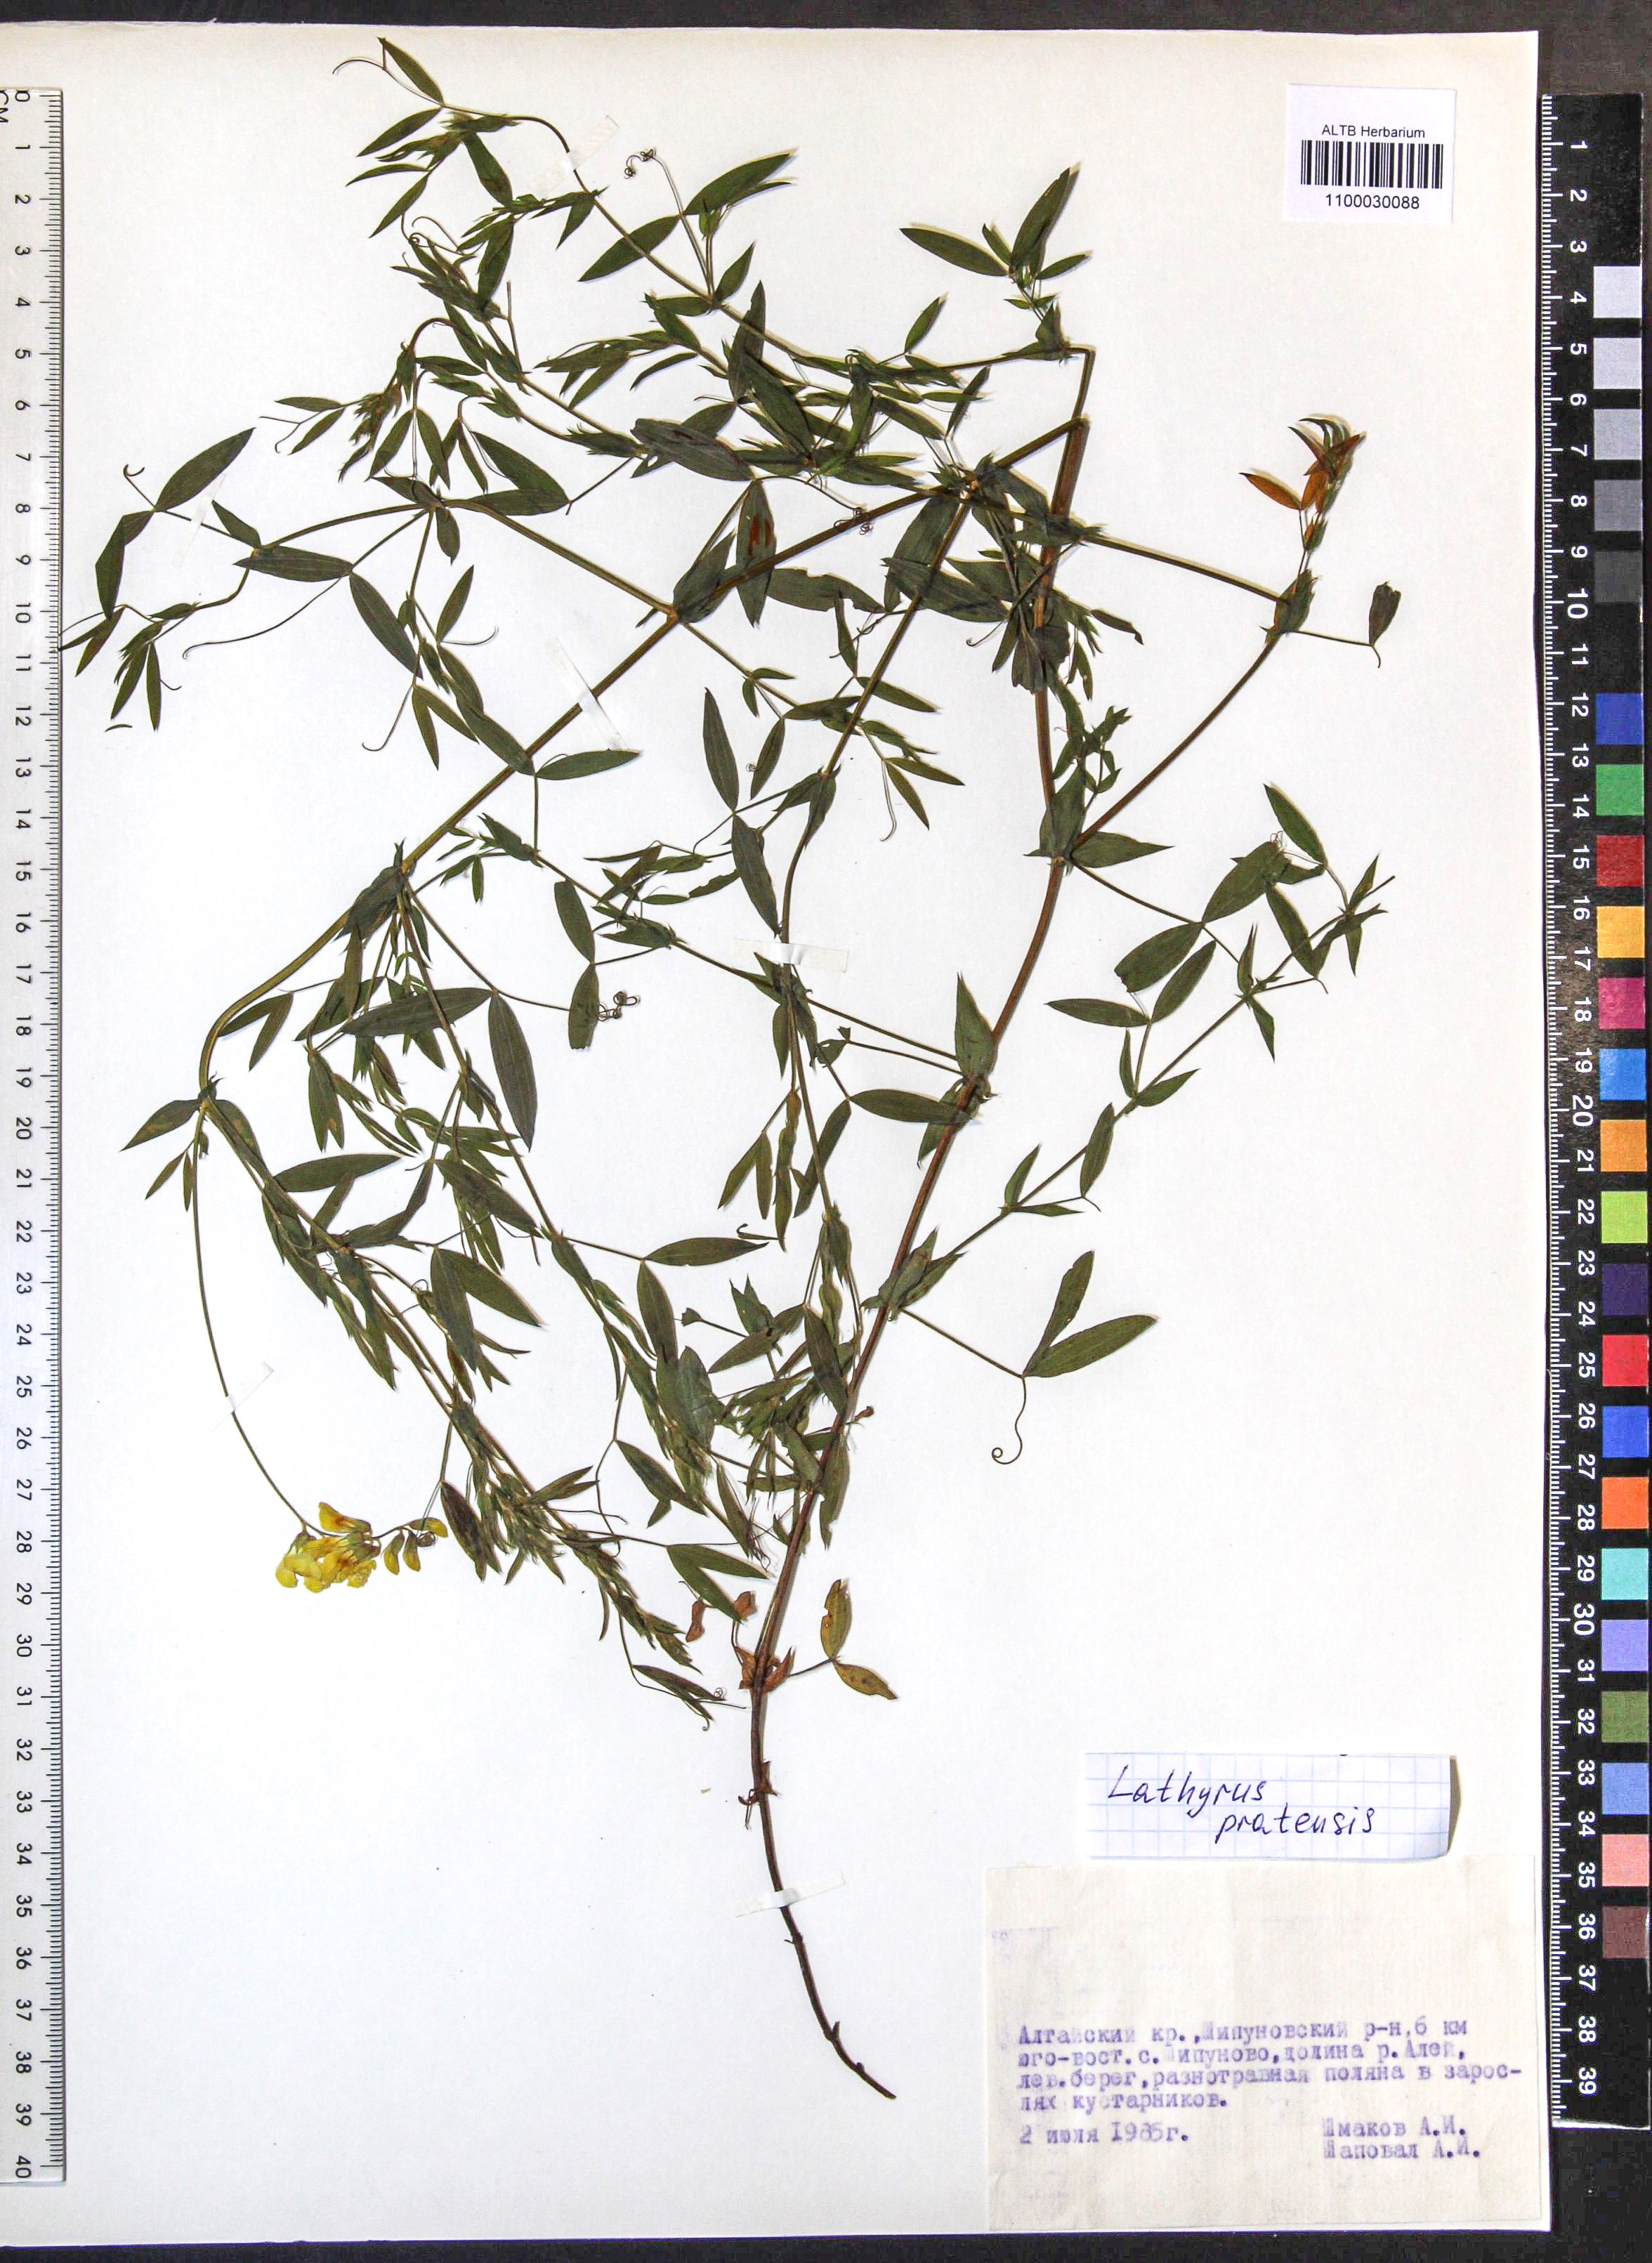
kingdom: Plantae
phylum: Tracheophyta
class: Magnoliopsida
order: Fabales
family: Fabaceae
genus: Lathyrus
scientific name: Lathyrus pratensis
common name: Meadow vetchling
